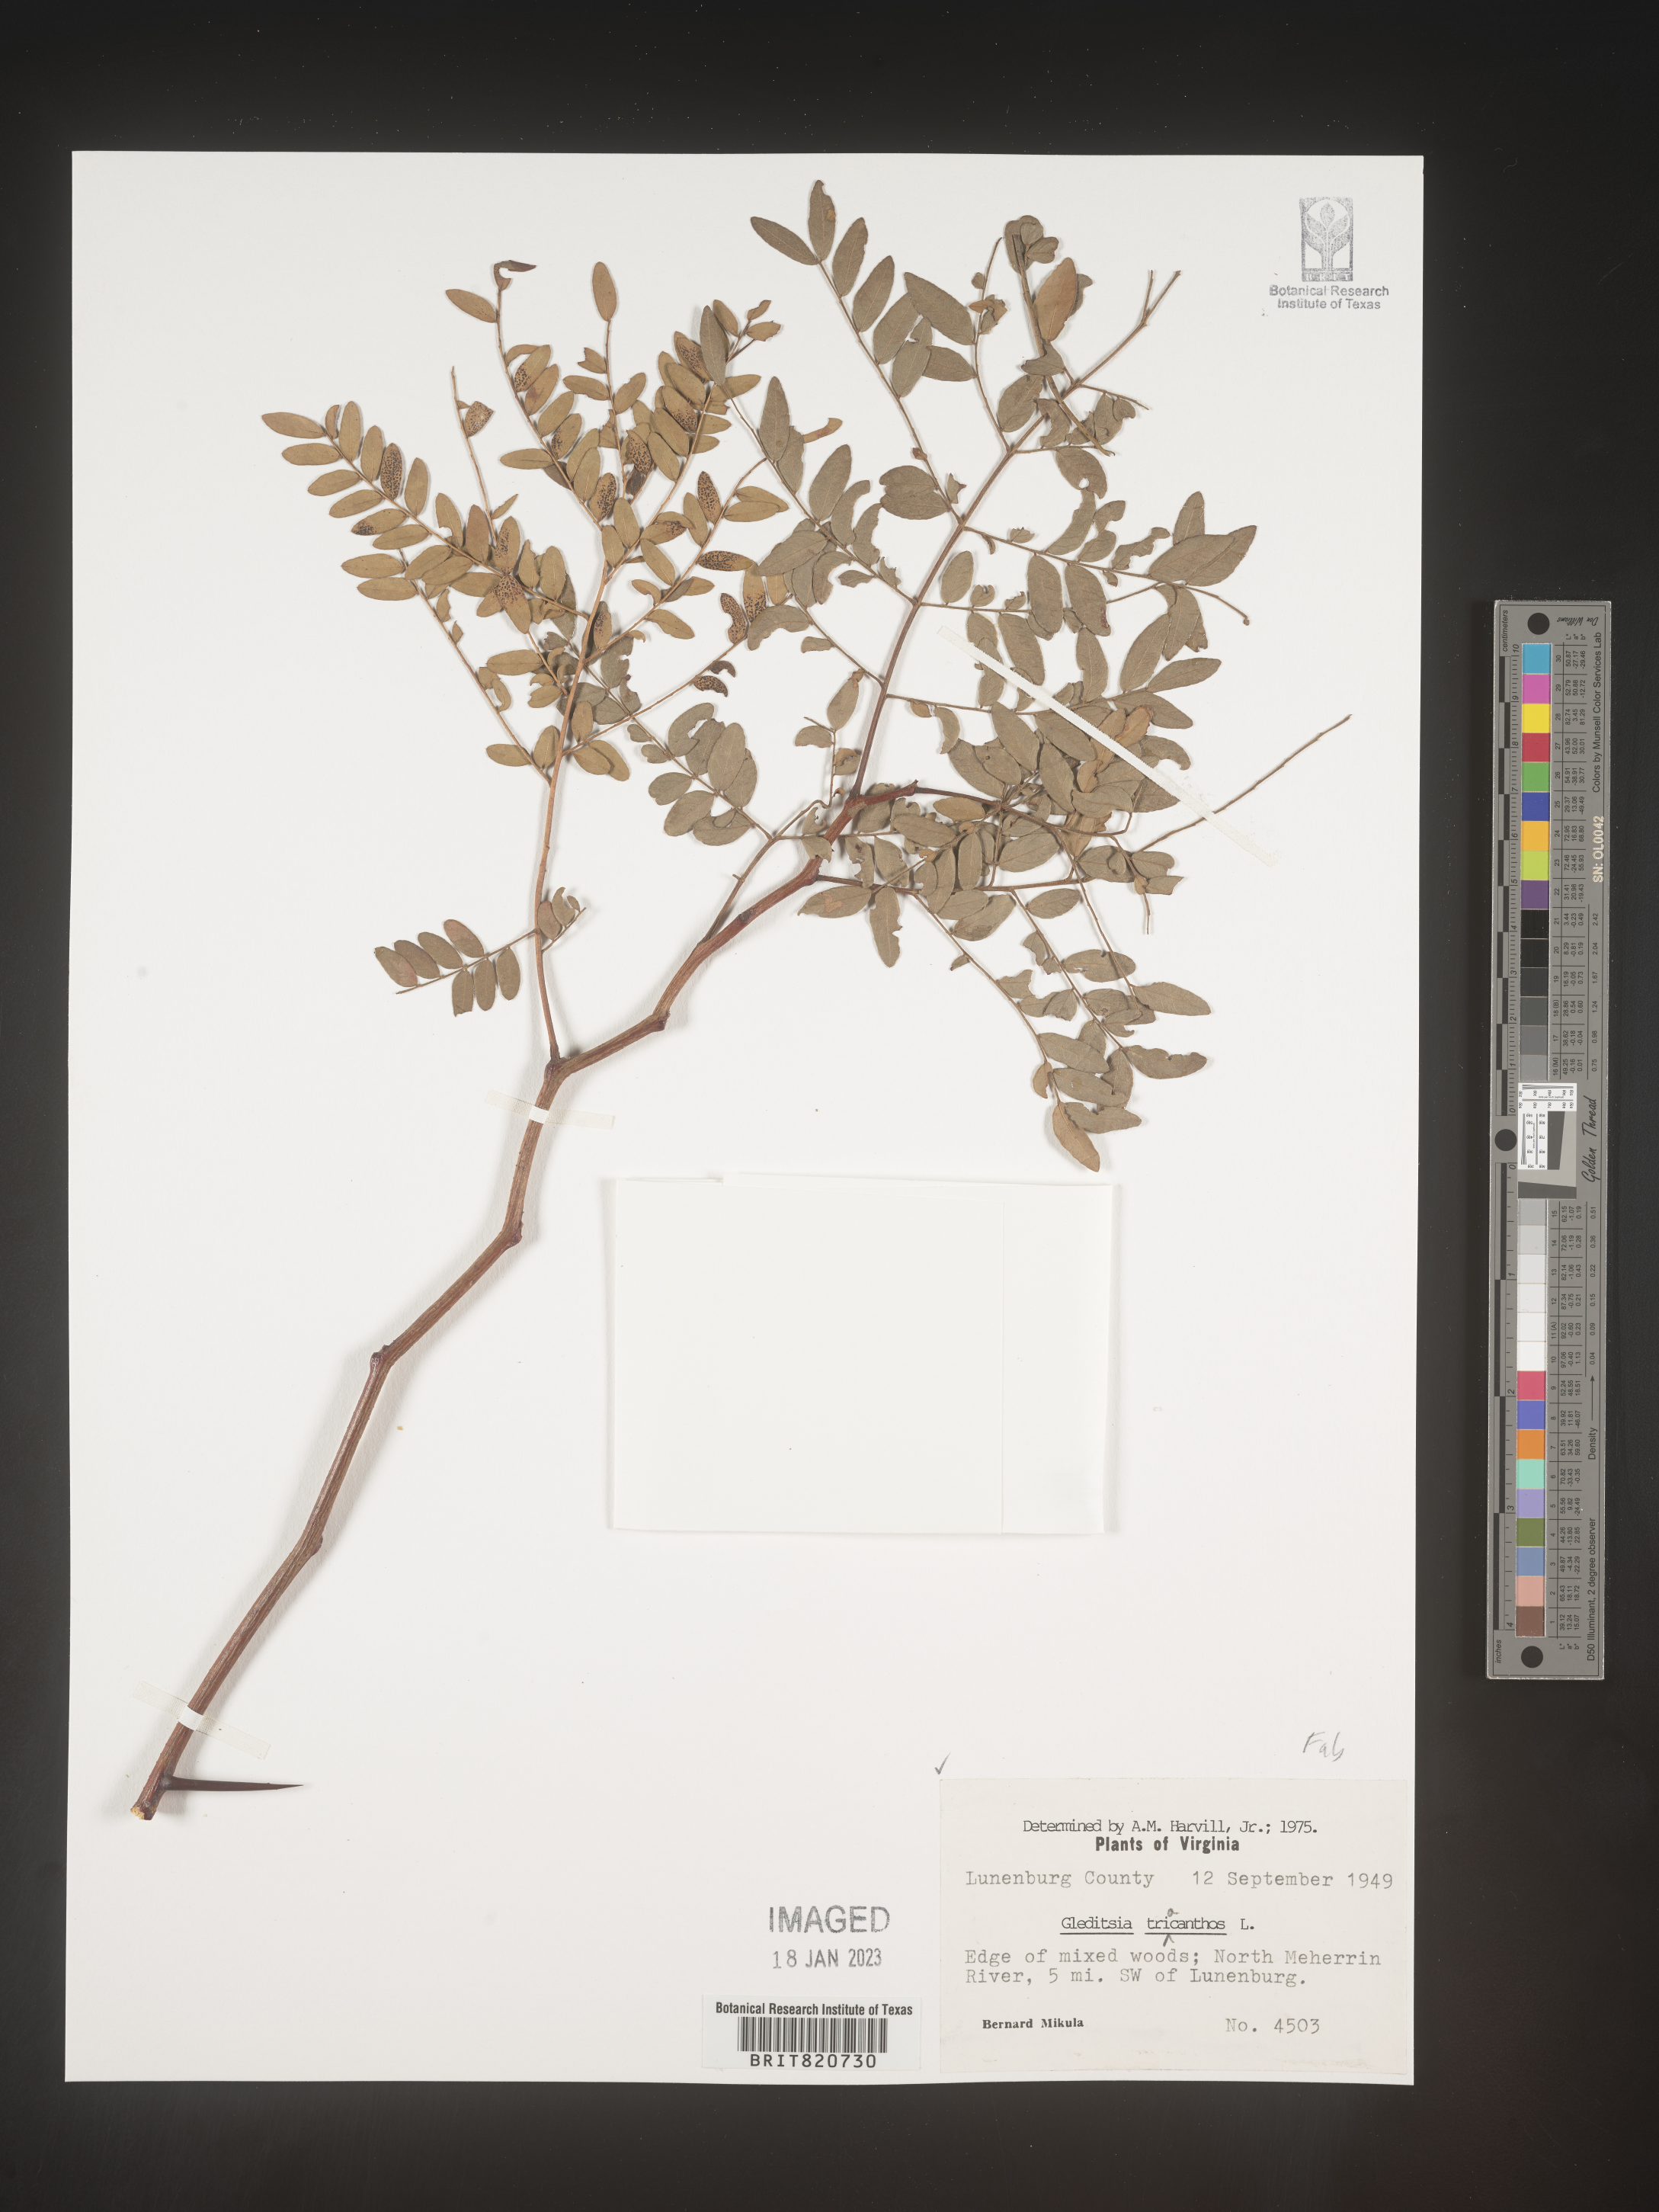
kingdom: Plantae
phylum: Tracheophyta
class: Magnoliopsida
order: Fabales
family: Fabaceae
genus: Gleditsia
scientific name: Gleditsia triacanthos
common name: Common honeylocust
